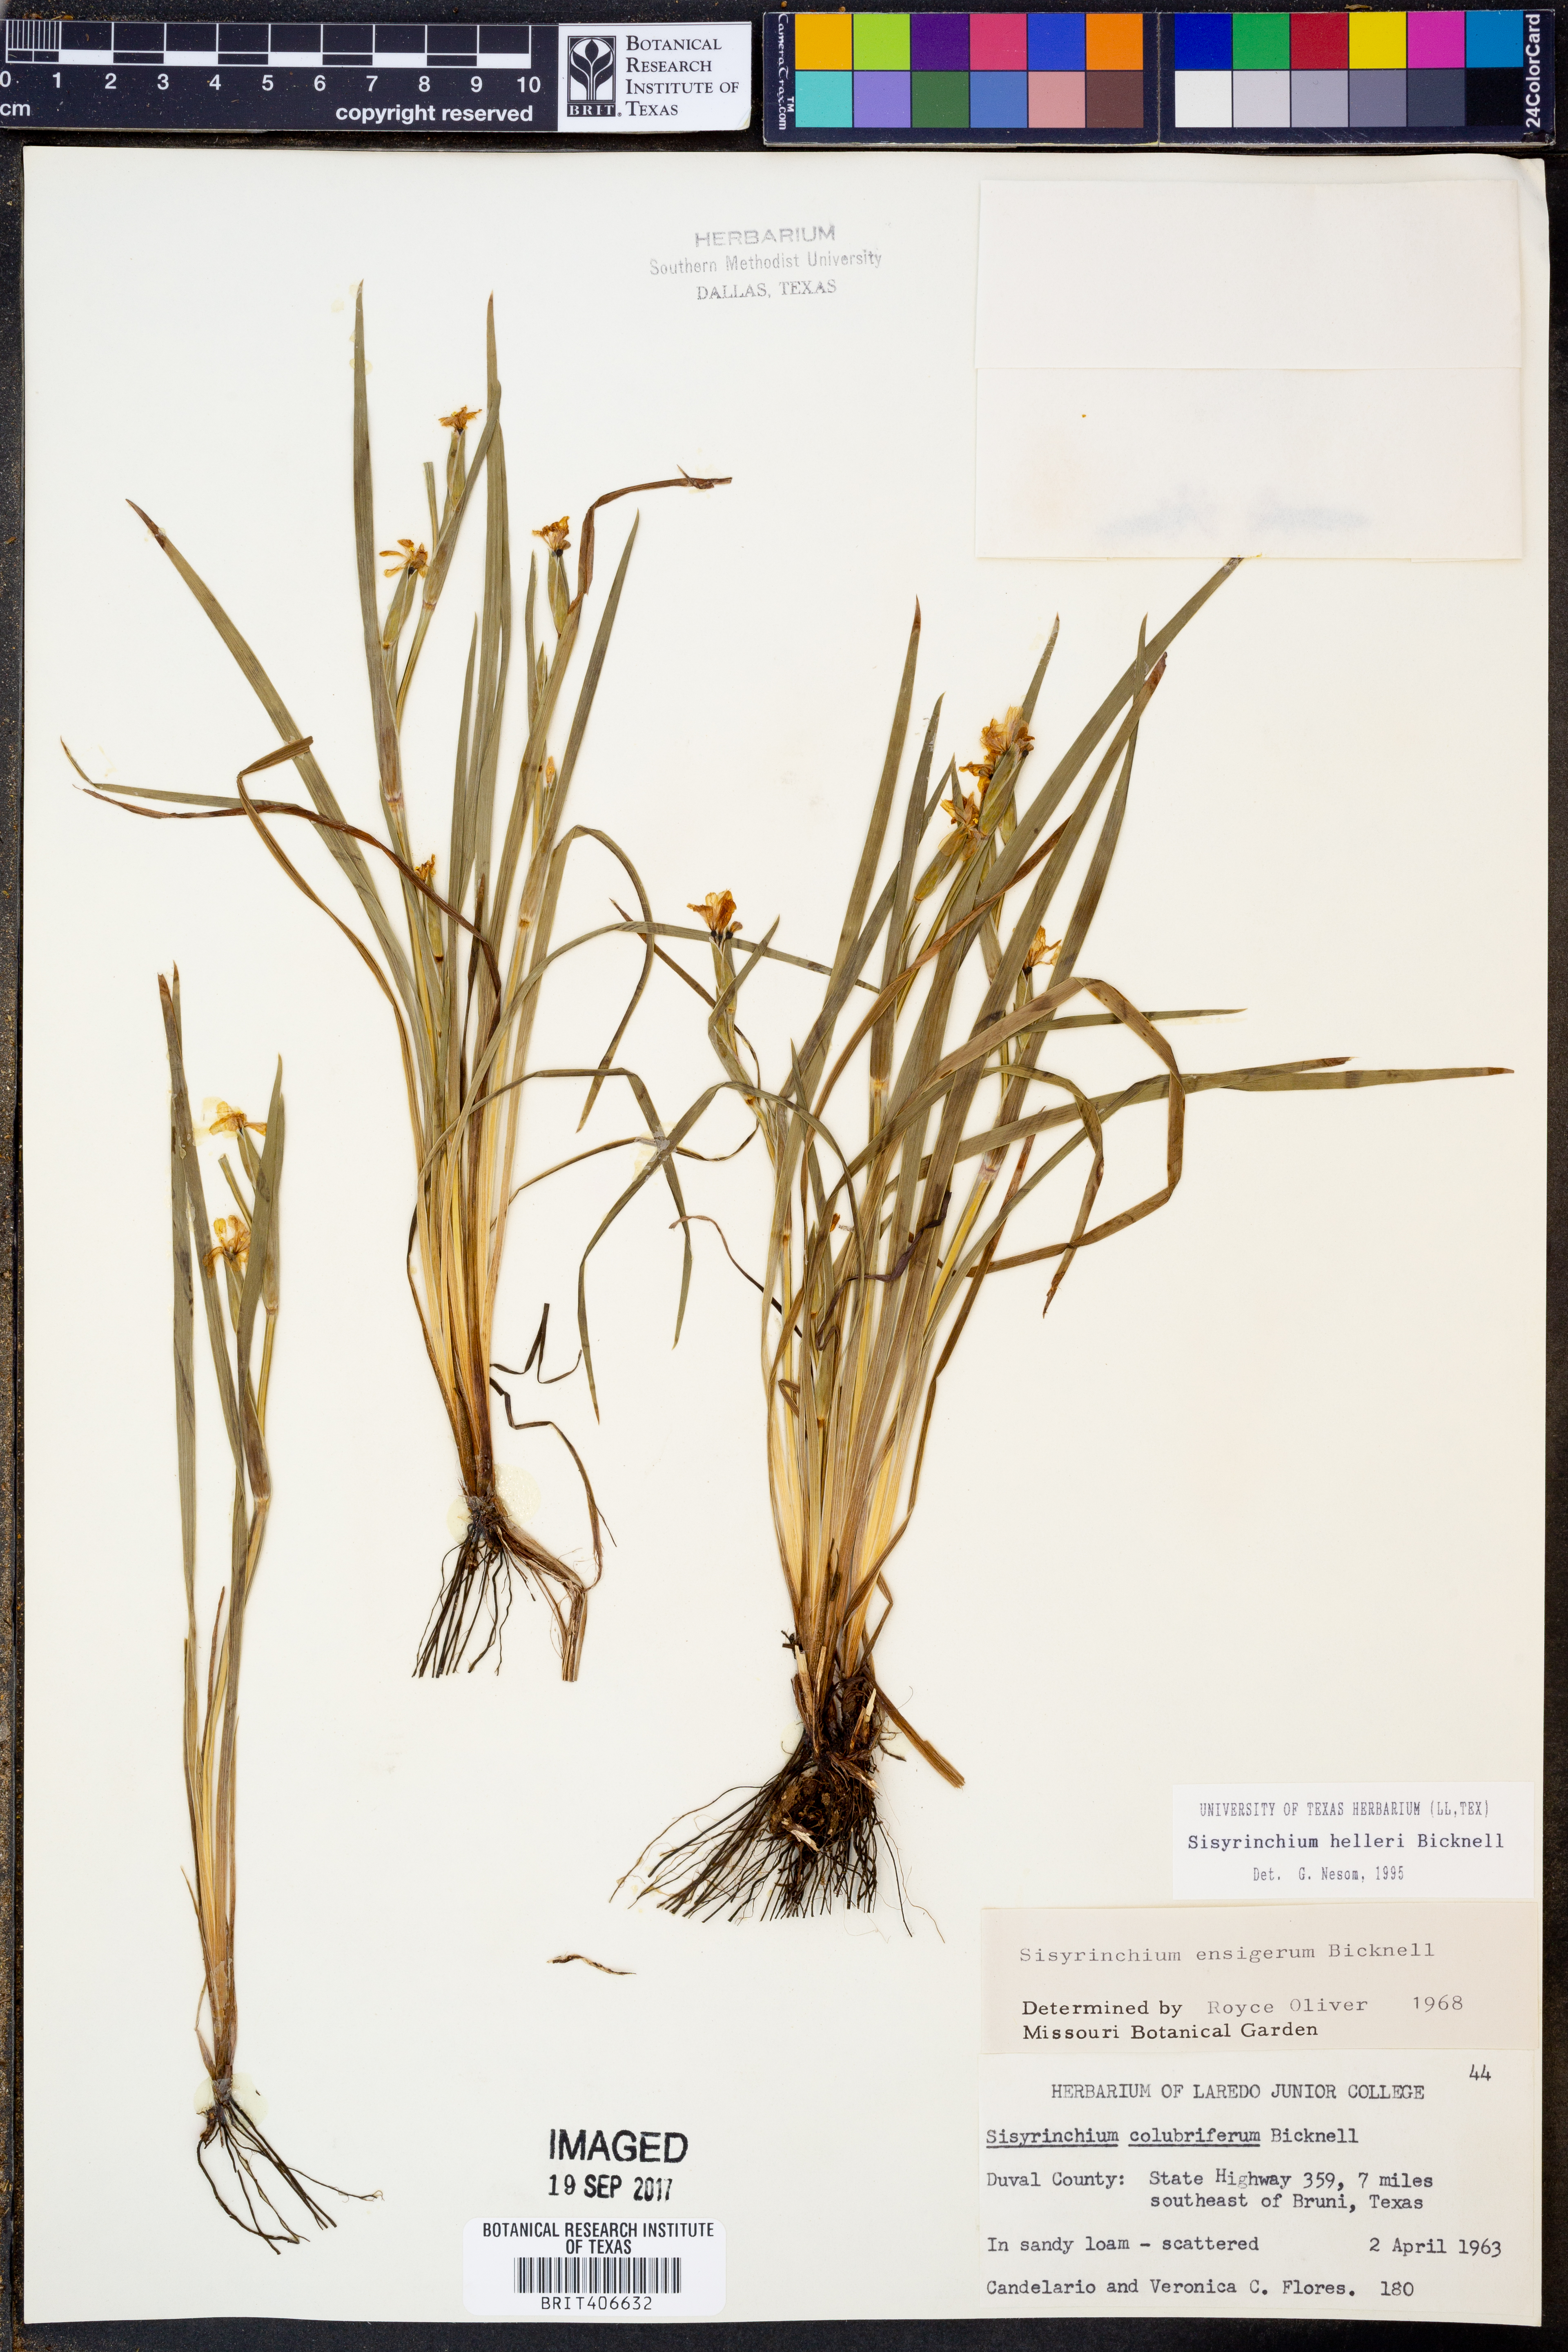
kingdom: Plantae
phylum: Tracheophyta
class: Liliopsida
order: Asparagales
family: Iridaceae
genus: Sisyrinchium
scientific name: Sisyrinchium pruinosum
